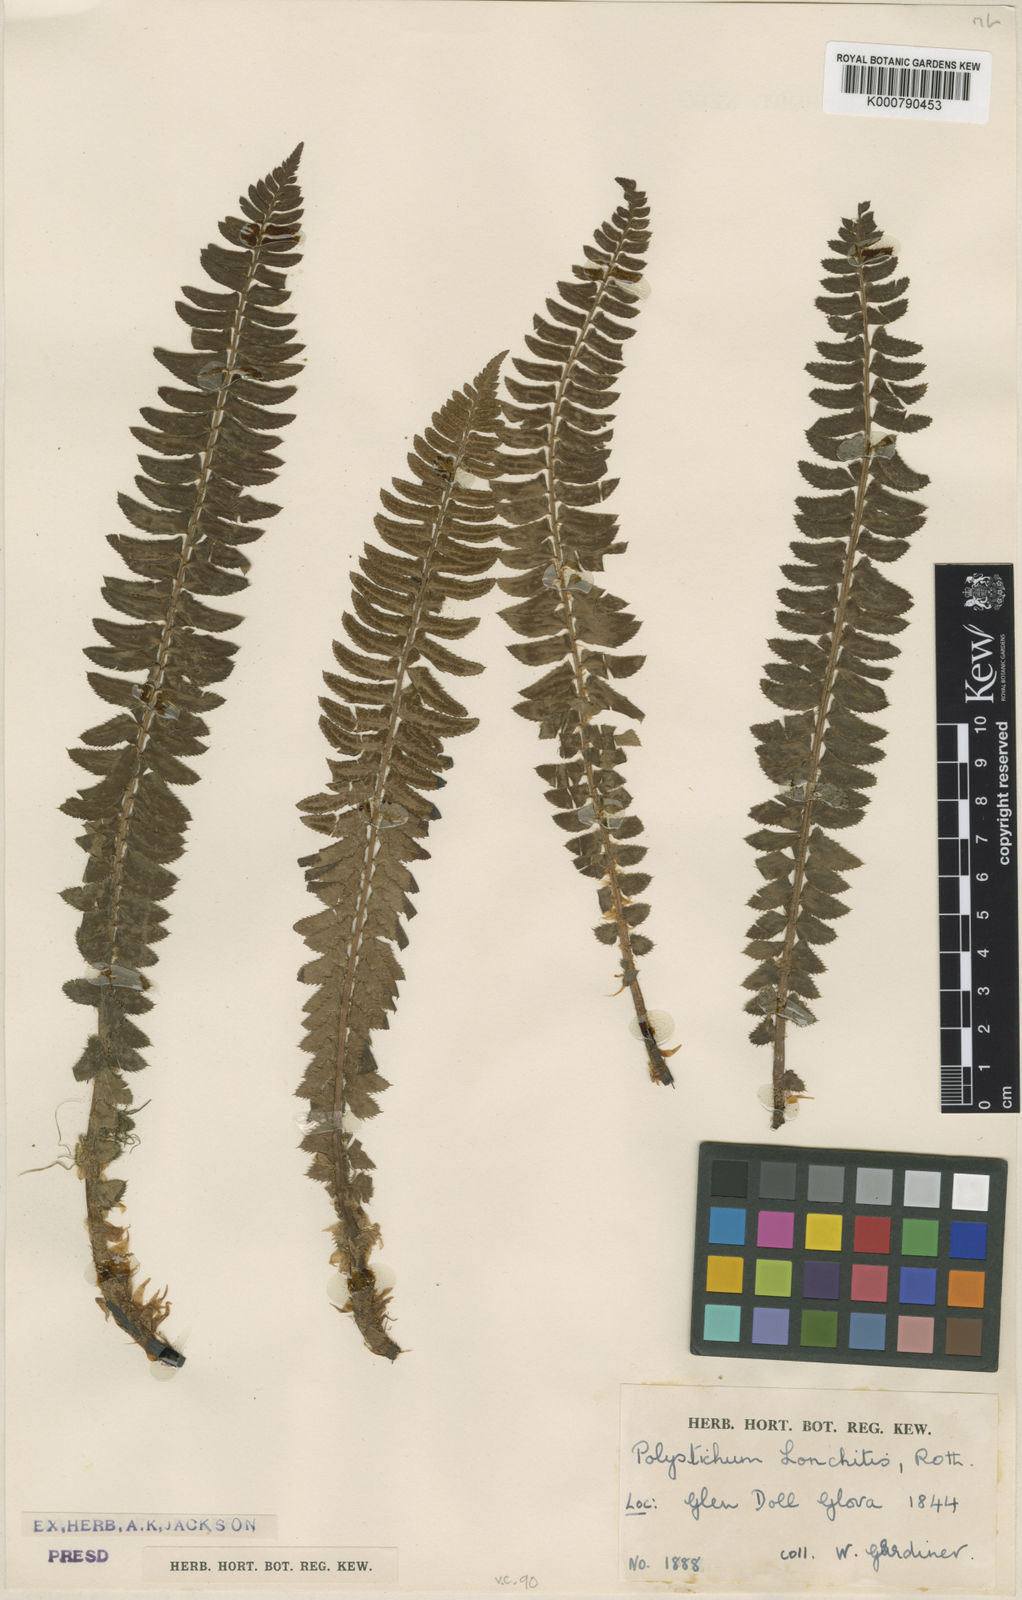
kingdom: Plantae
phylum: Tracheophyta
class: Polypodiopsida
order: Polypodiales
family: Dryopteridaceae
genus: Polystichum
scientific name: Polystichum
